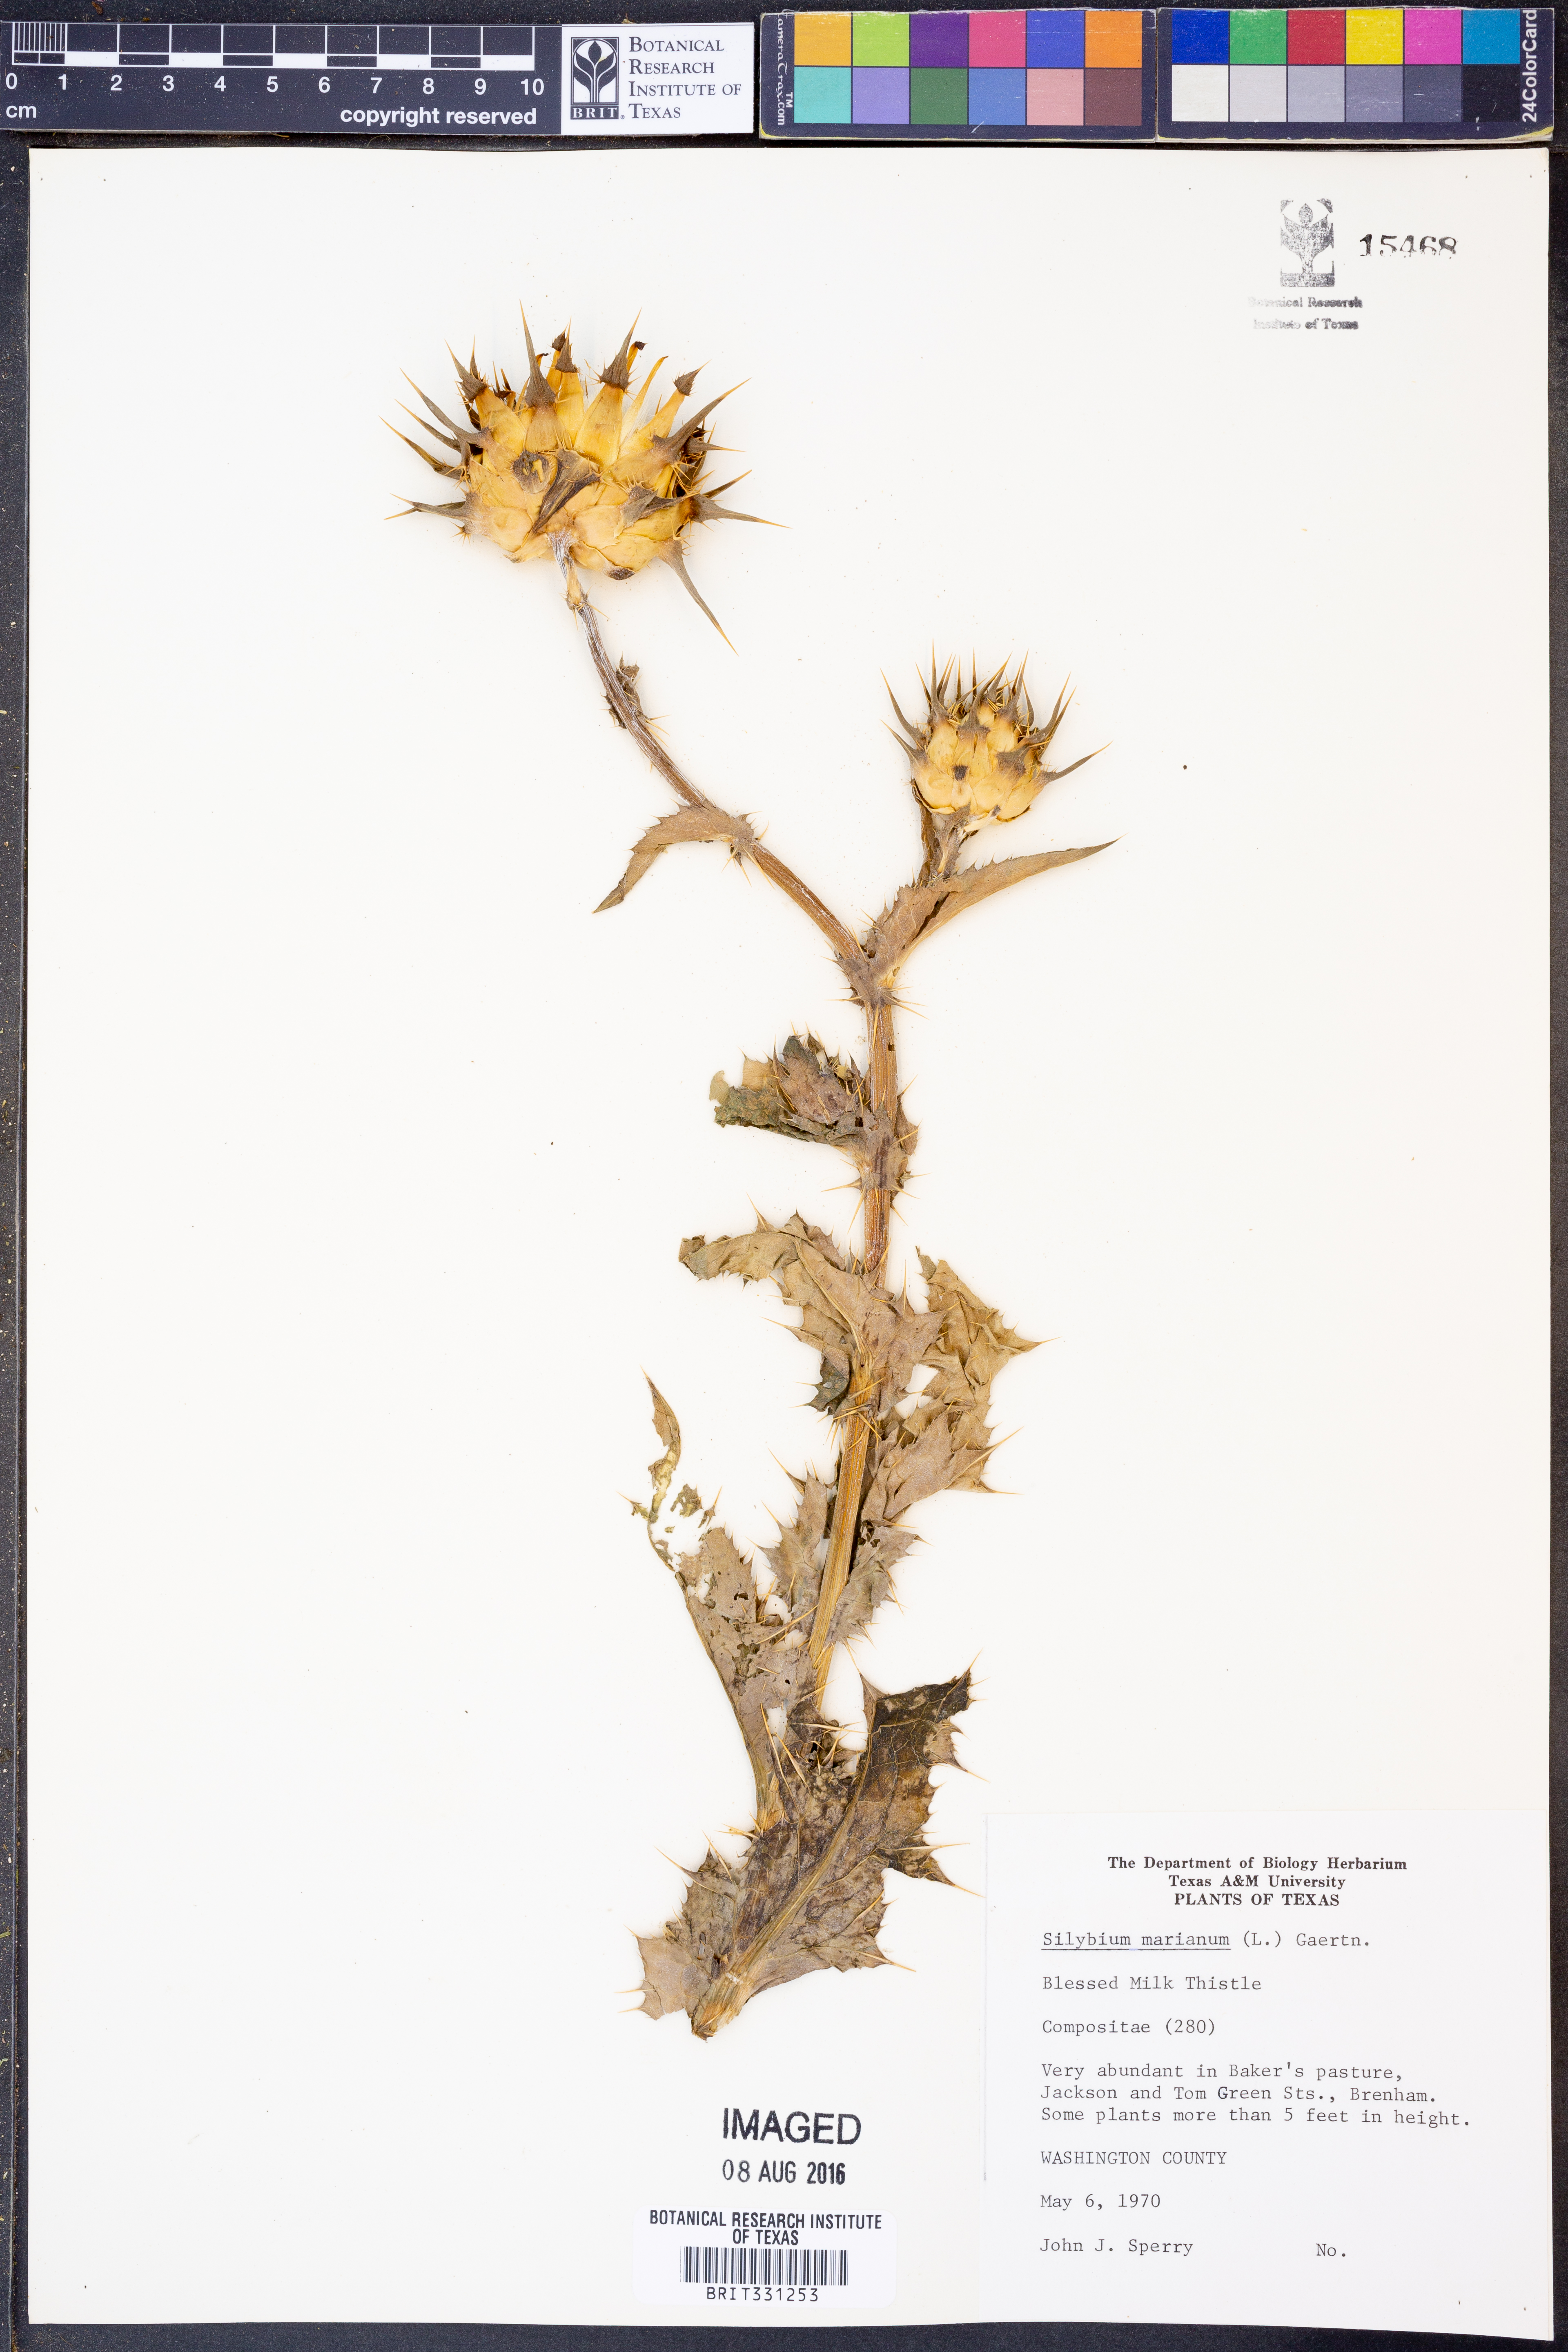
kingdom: Plantae
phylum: Tracheophyta
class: Magnoliopsida
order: Asterales
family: Asteraceae
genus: Silybum
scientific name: Silybum marianum
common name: Milk thistle
